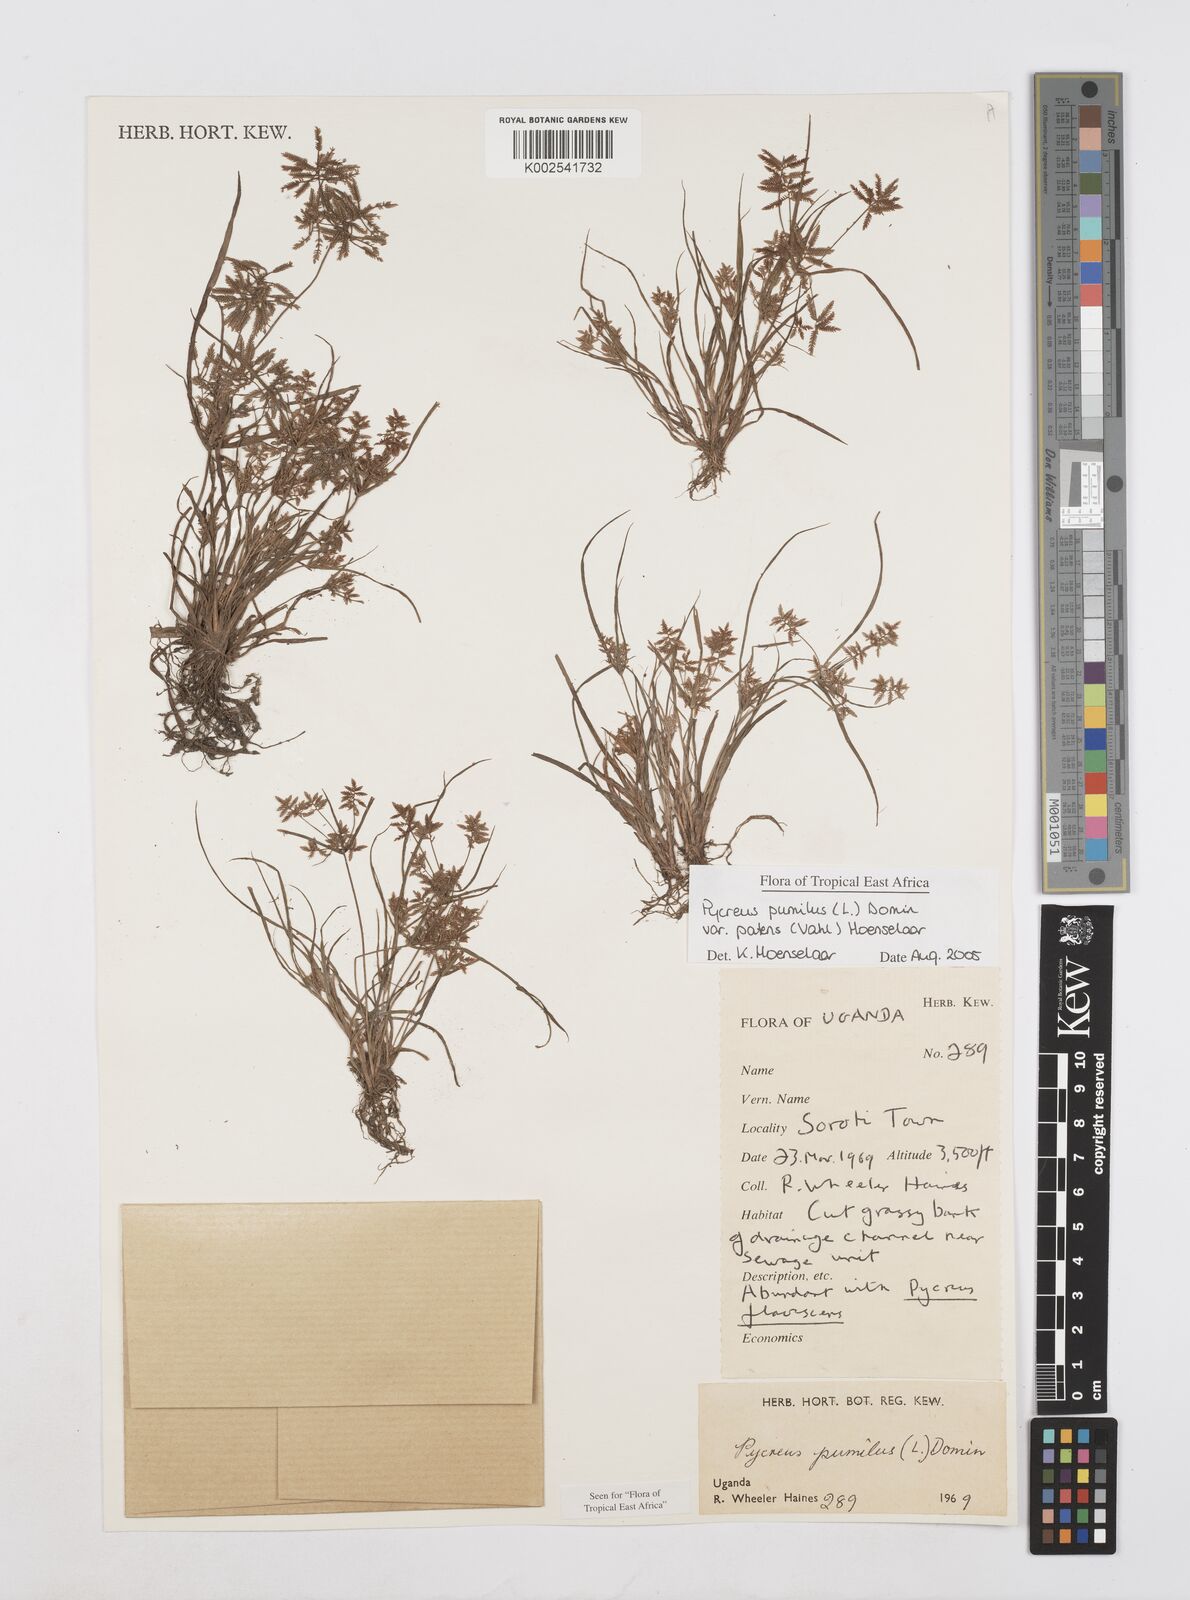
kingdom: Plantae
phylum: Tracheophyta
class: Liliopsida
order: Poales
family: Cyperaceae
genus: Cyperus
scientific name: Cyperus pumilus
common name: Low flatsedge
